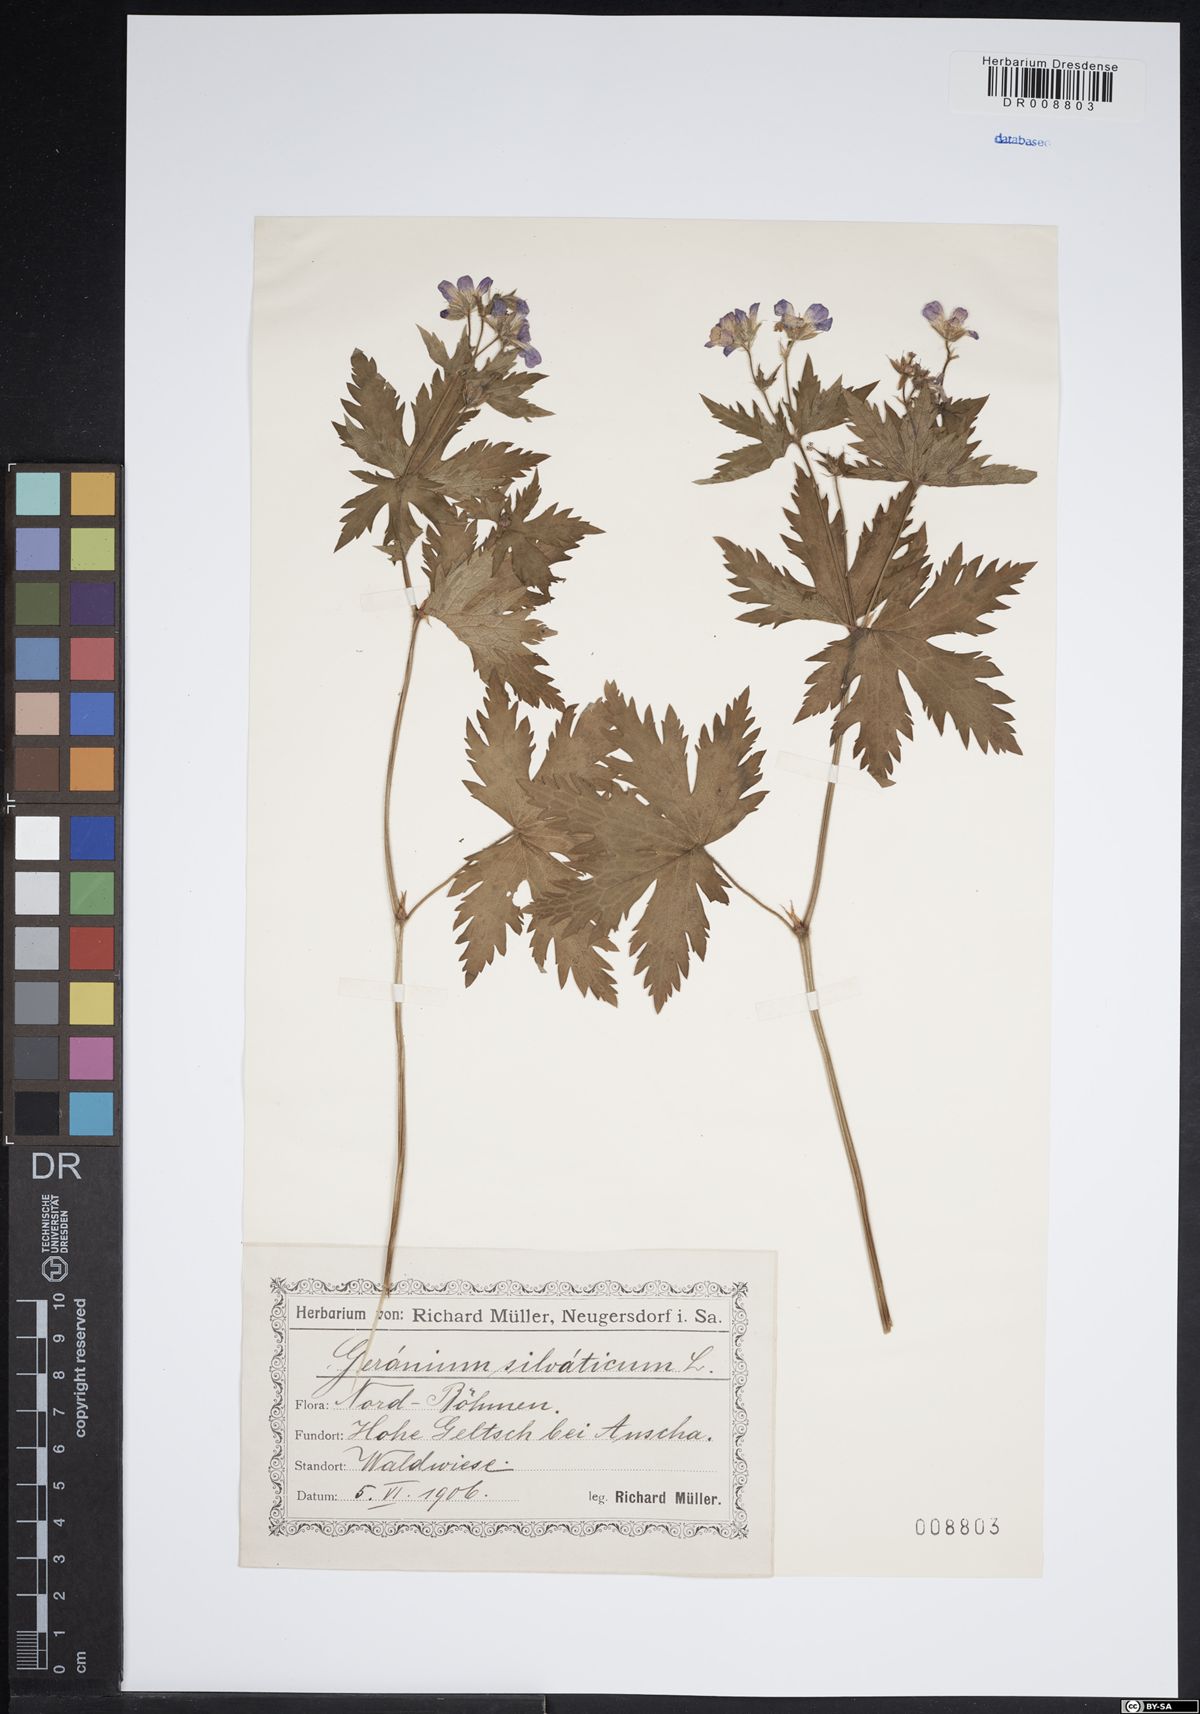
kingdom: Plantae
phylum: Tracheophyta
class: Magnoliopsida
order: Geraniales
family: Geraniaceae
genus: Geranium
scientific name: Geranium sylvaticum
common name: Wood crane's-bill
